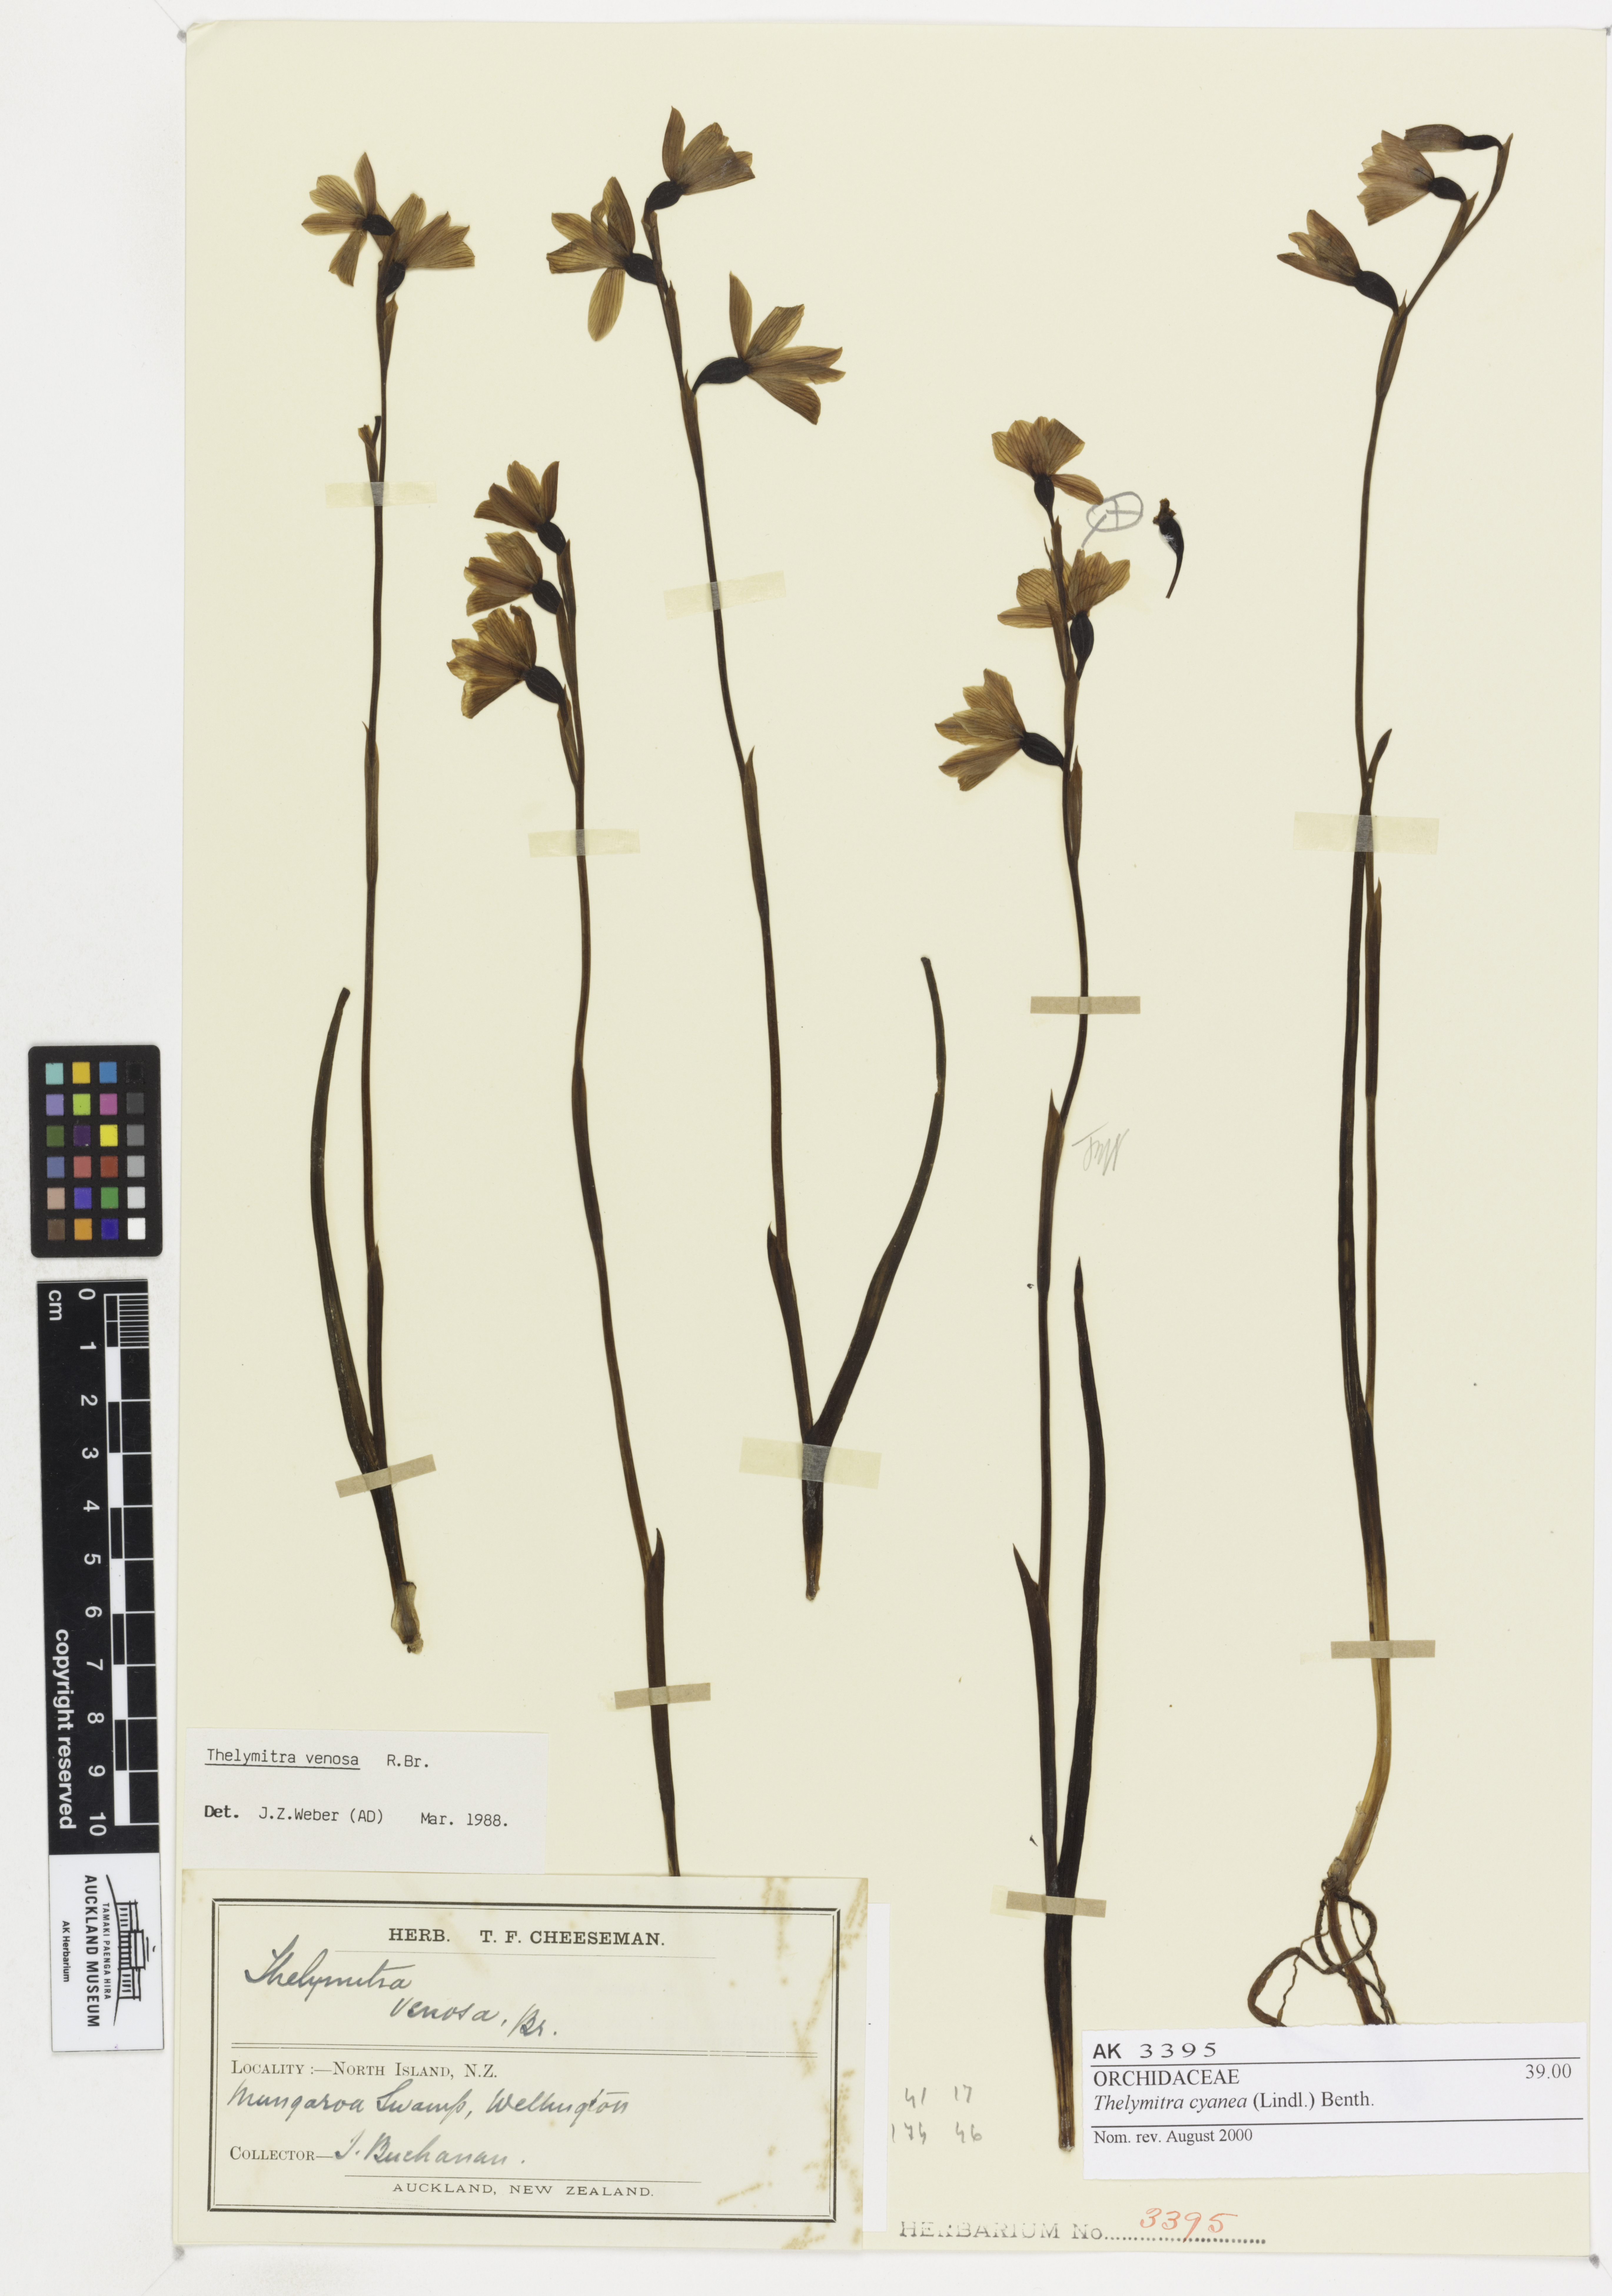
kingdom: Plantae
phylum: Tracheophyta
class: Liliopsida
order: Asparagales
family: Orchidaceae
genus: Thelymitra
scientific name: Thelymitra cyanea
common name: Blue sun-orchid
